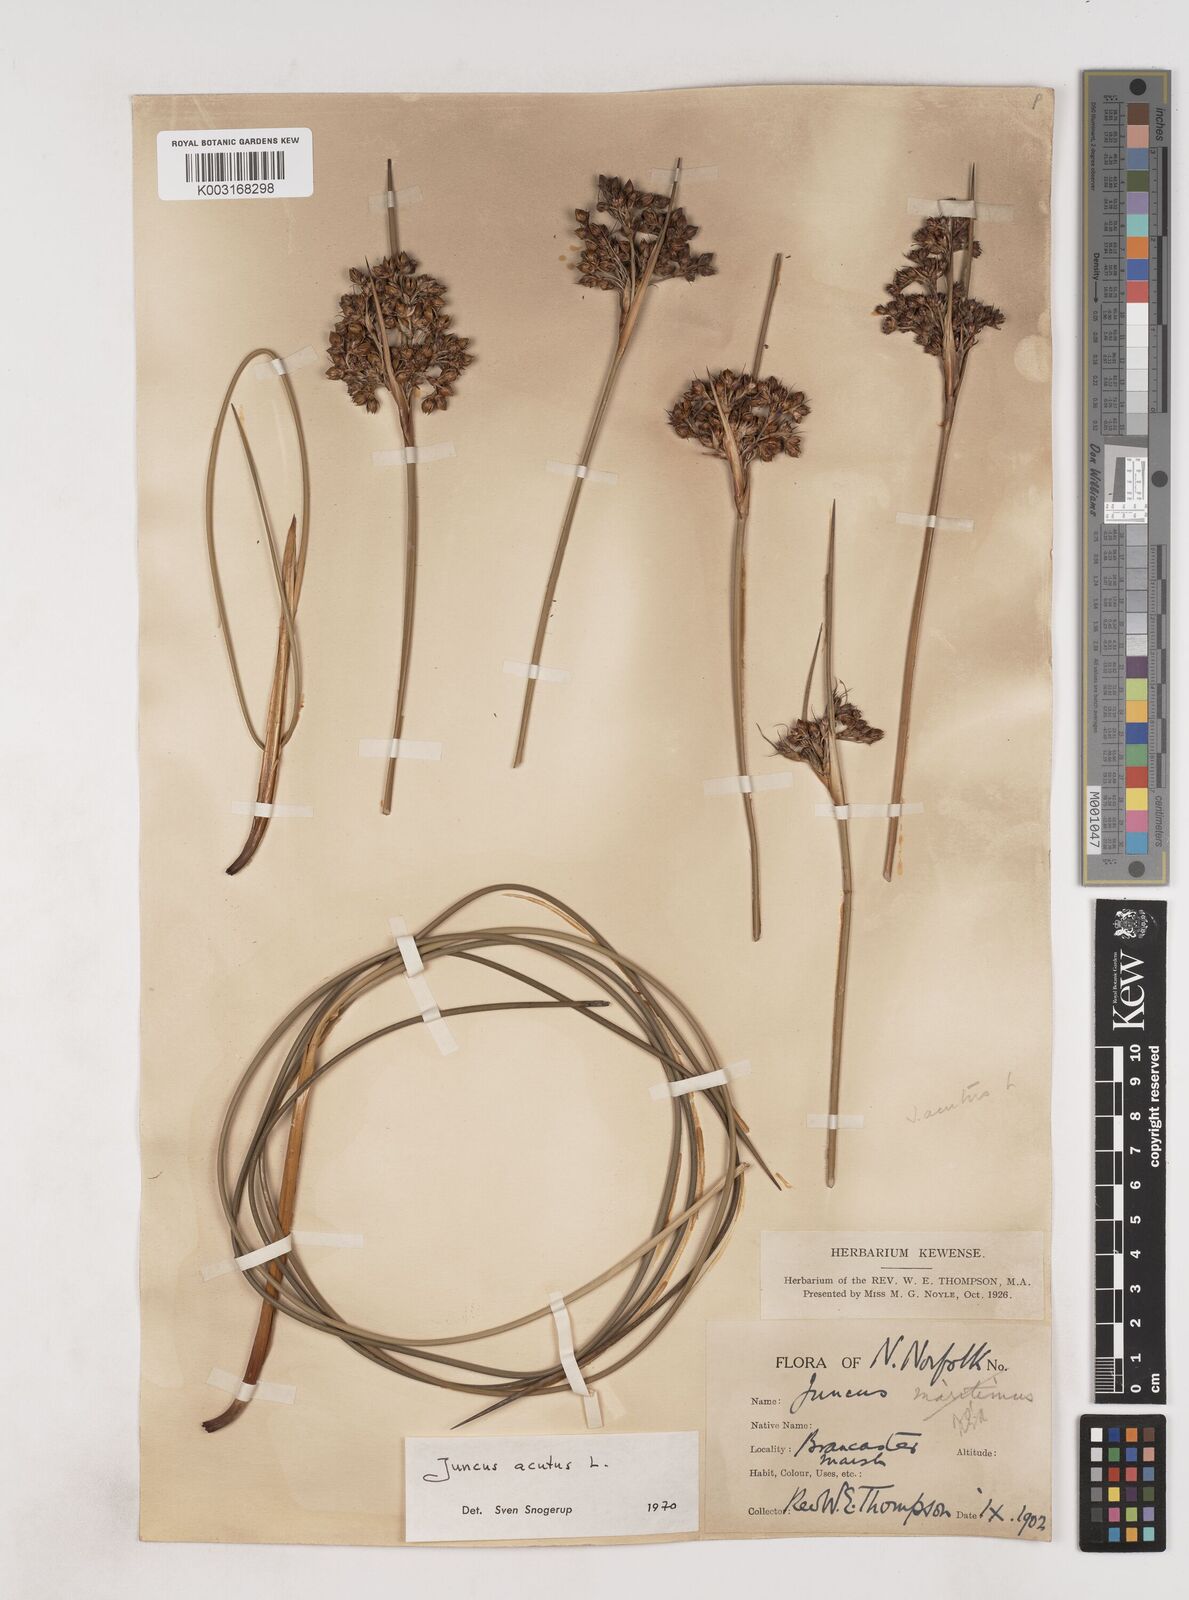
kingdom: Plantae
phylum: Tracheophyta
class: Liliopsida
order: Poales
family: Juncaceae
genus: Juncus
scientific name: Juncus acutus
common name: Sharp rush
